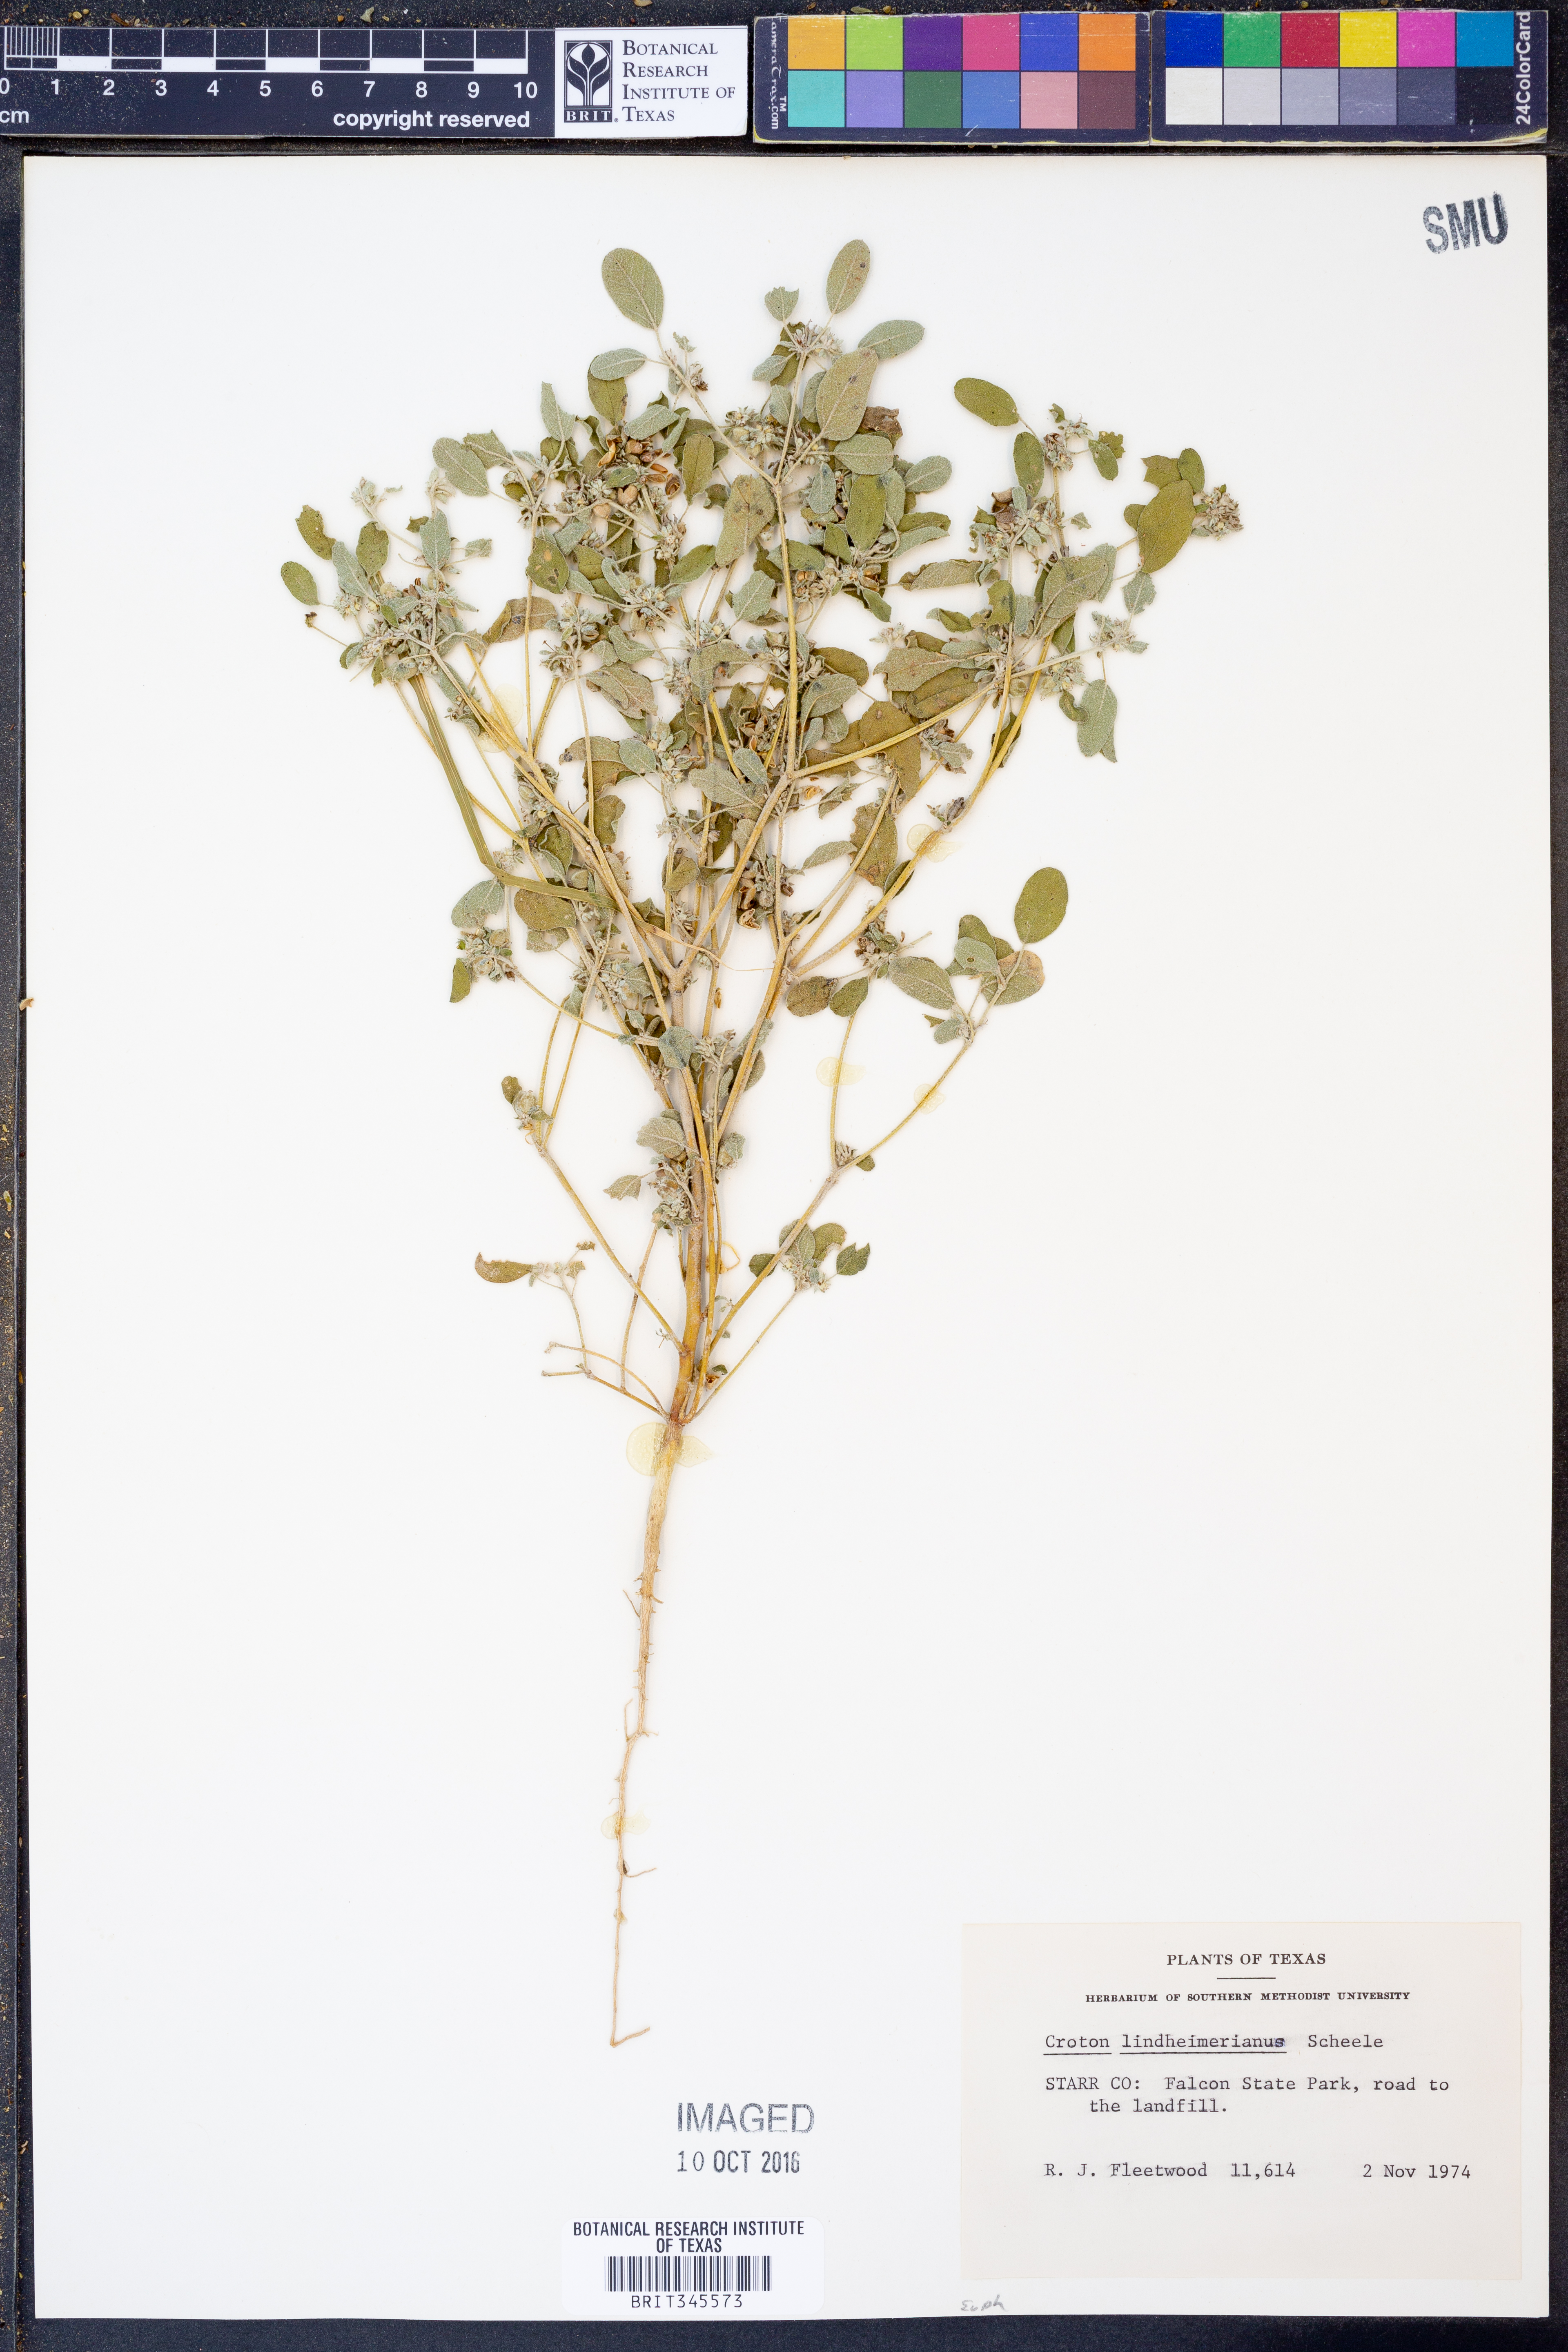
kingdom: Plantae
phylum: Tracheophyta
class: Magnoliopsida
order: Malpighiales
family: Euphorbiaceae
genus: Croton
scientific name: Croton lindheimerianus
